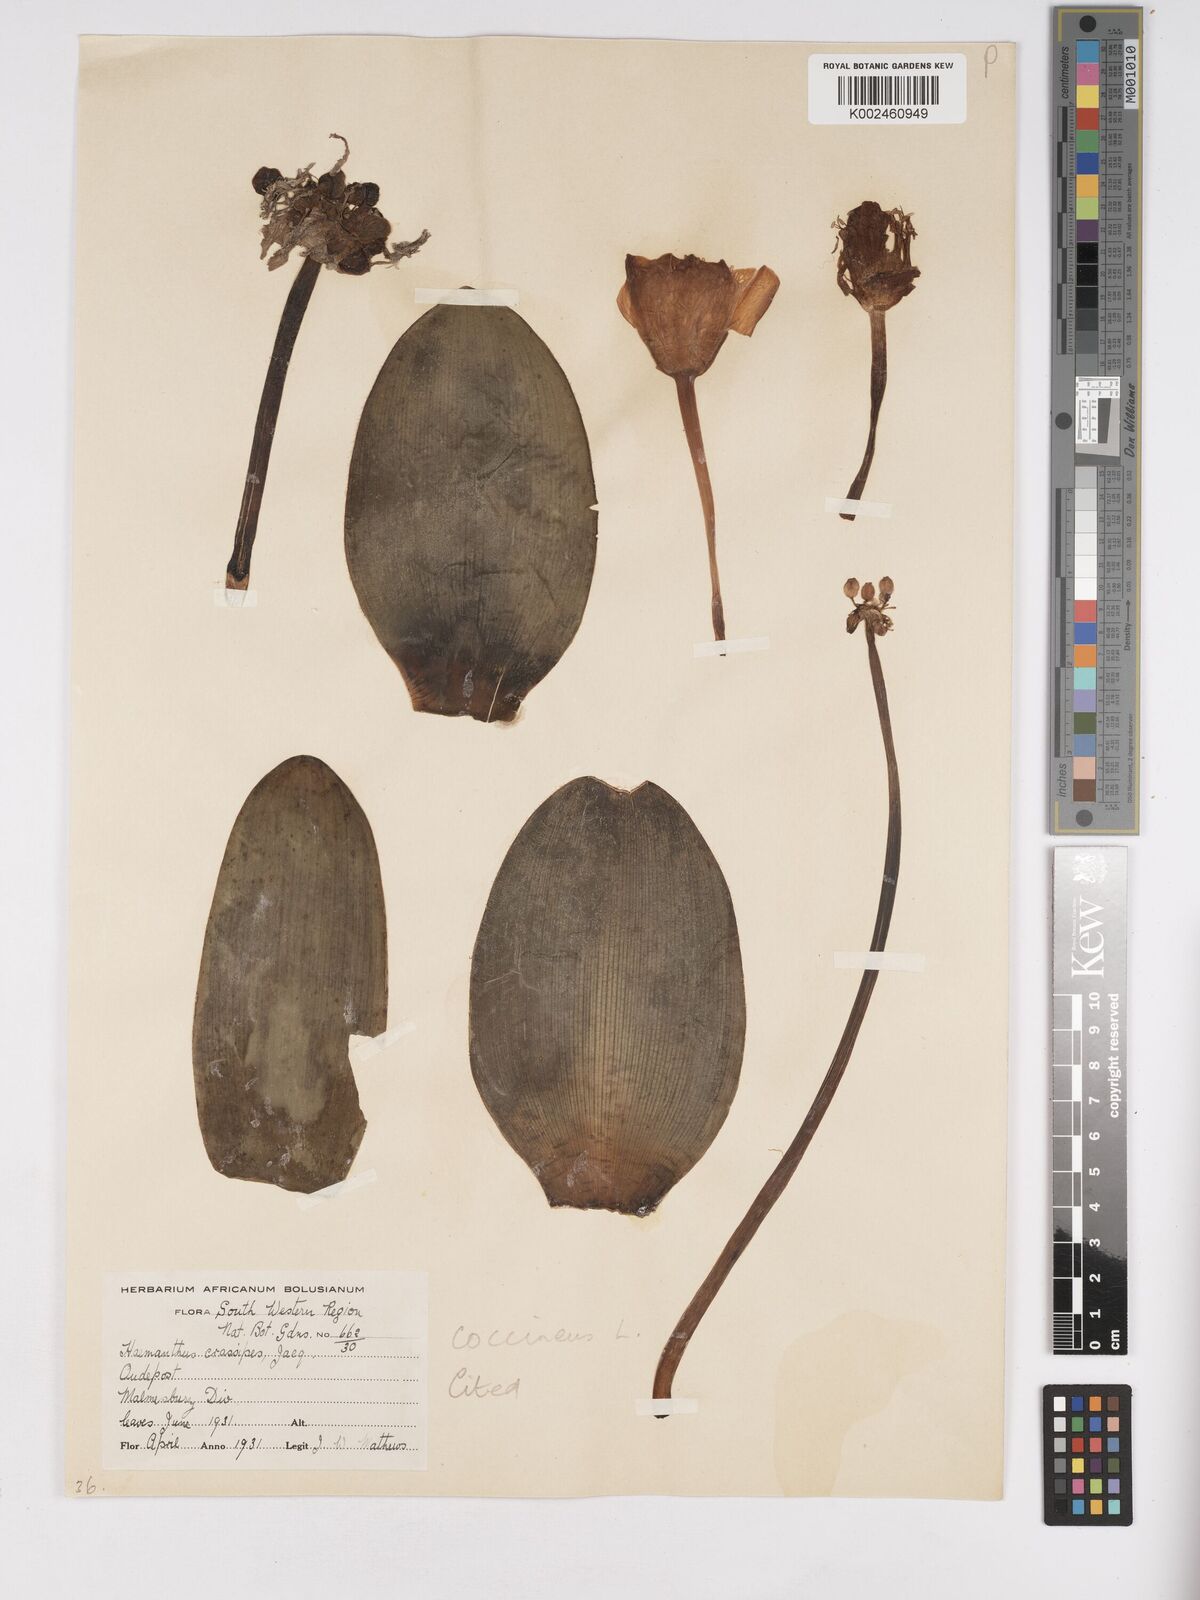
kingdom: Plantae
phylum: Tracheophyta
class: Liliopsida
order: Asparagales
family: Amaryllidaceae
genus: Haemanthus
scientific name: Haemanthus coccineus
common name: Cape-tulip
